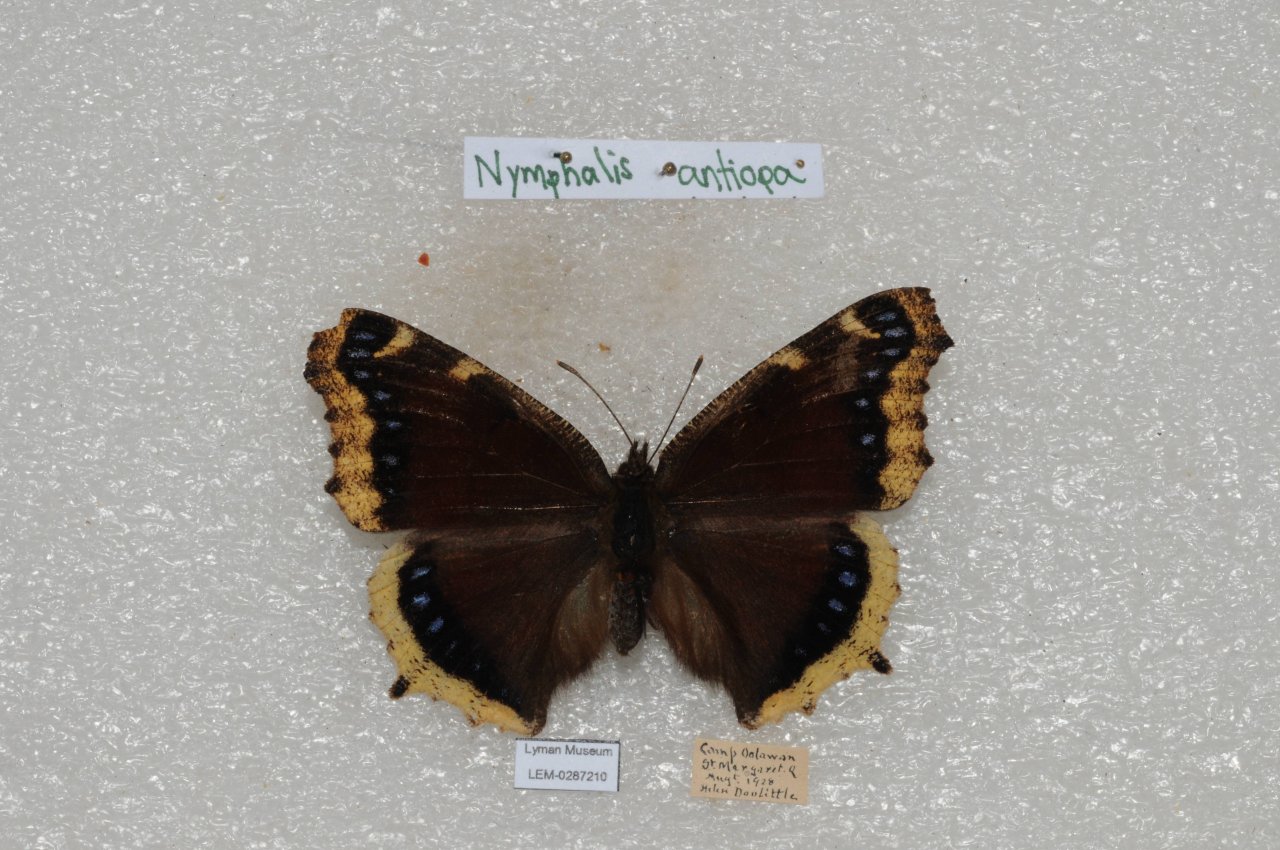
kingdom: Animalia
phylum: Arthropoda
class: Insecta
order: Lepidoptera
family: Nymphalidae
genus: Nymphalis
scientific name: Nymphalis antiopa
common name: Mourning Cloak
